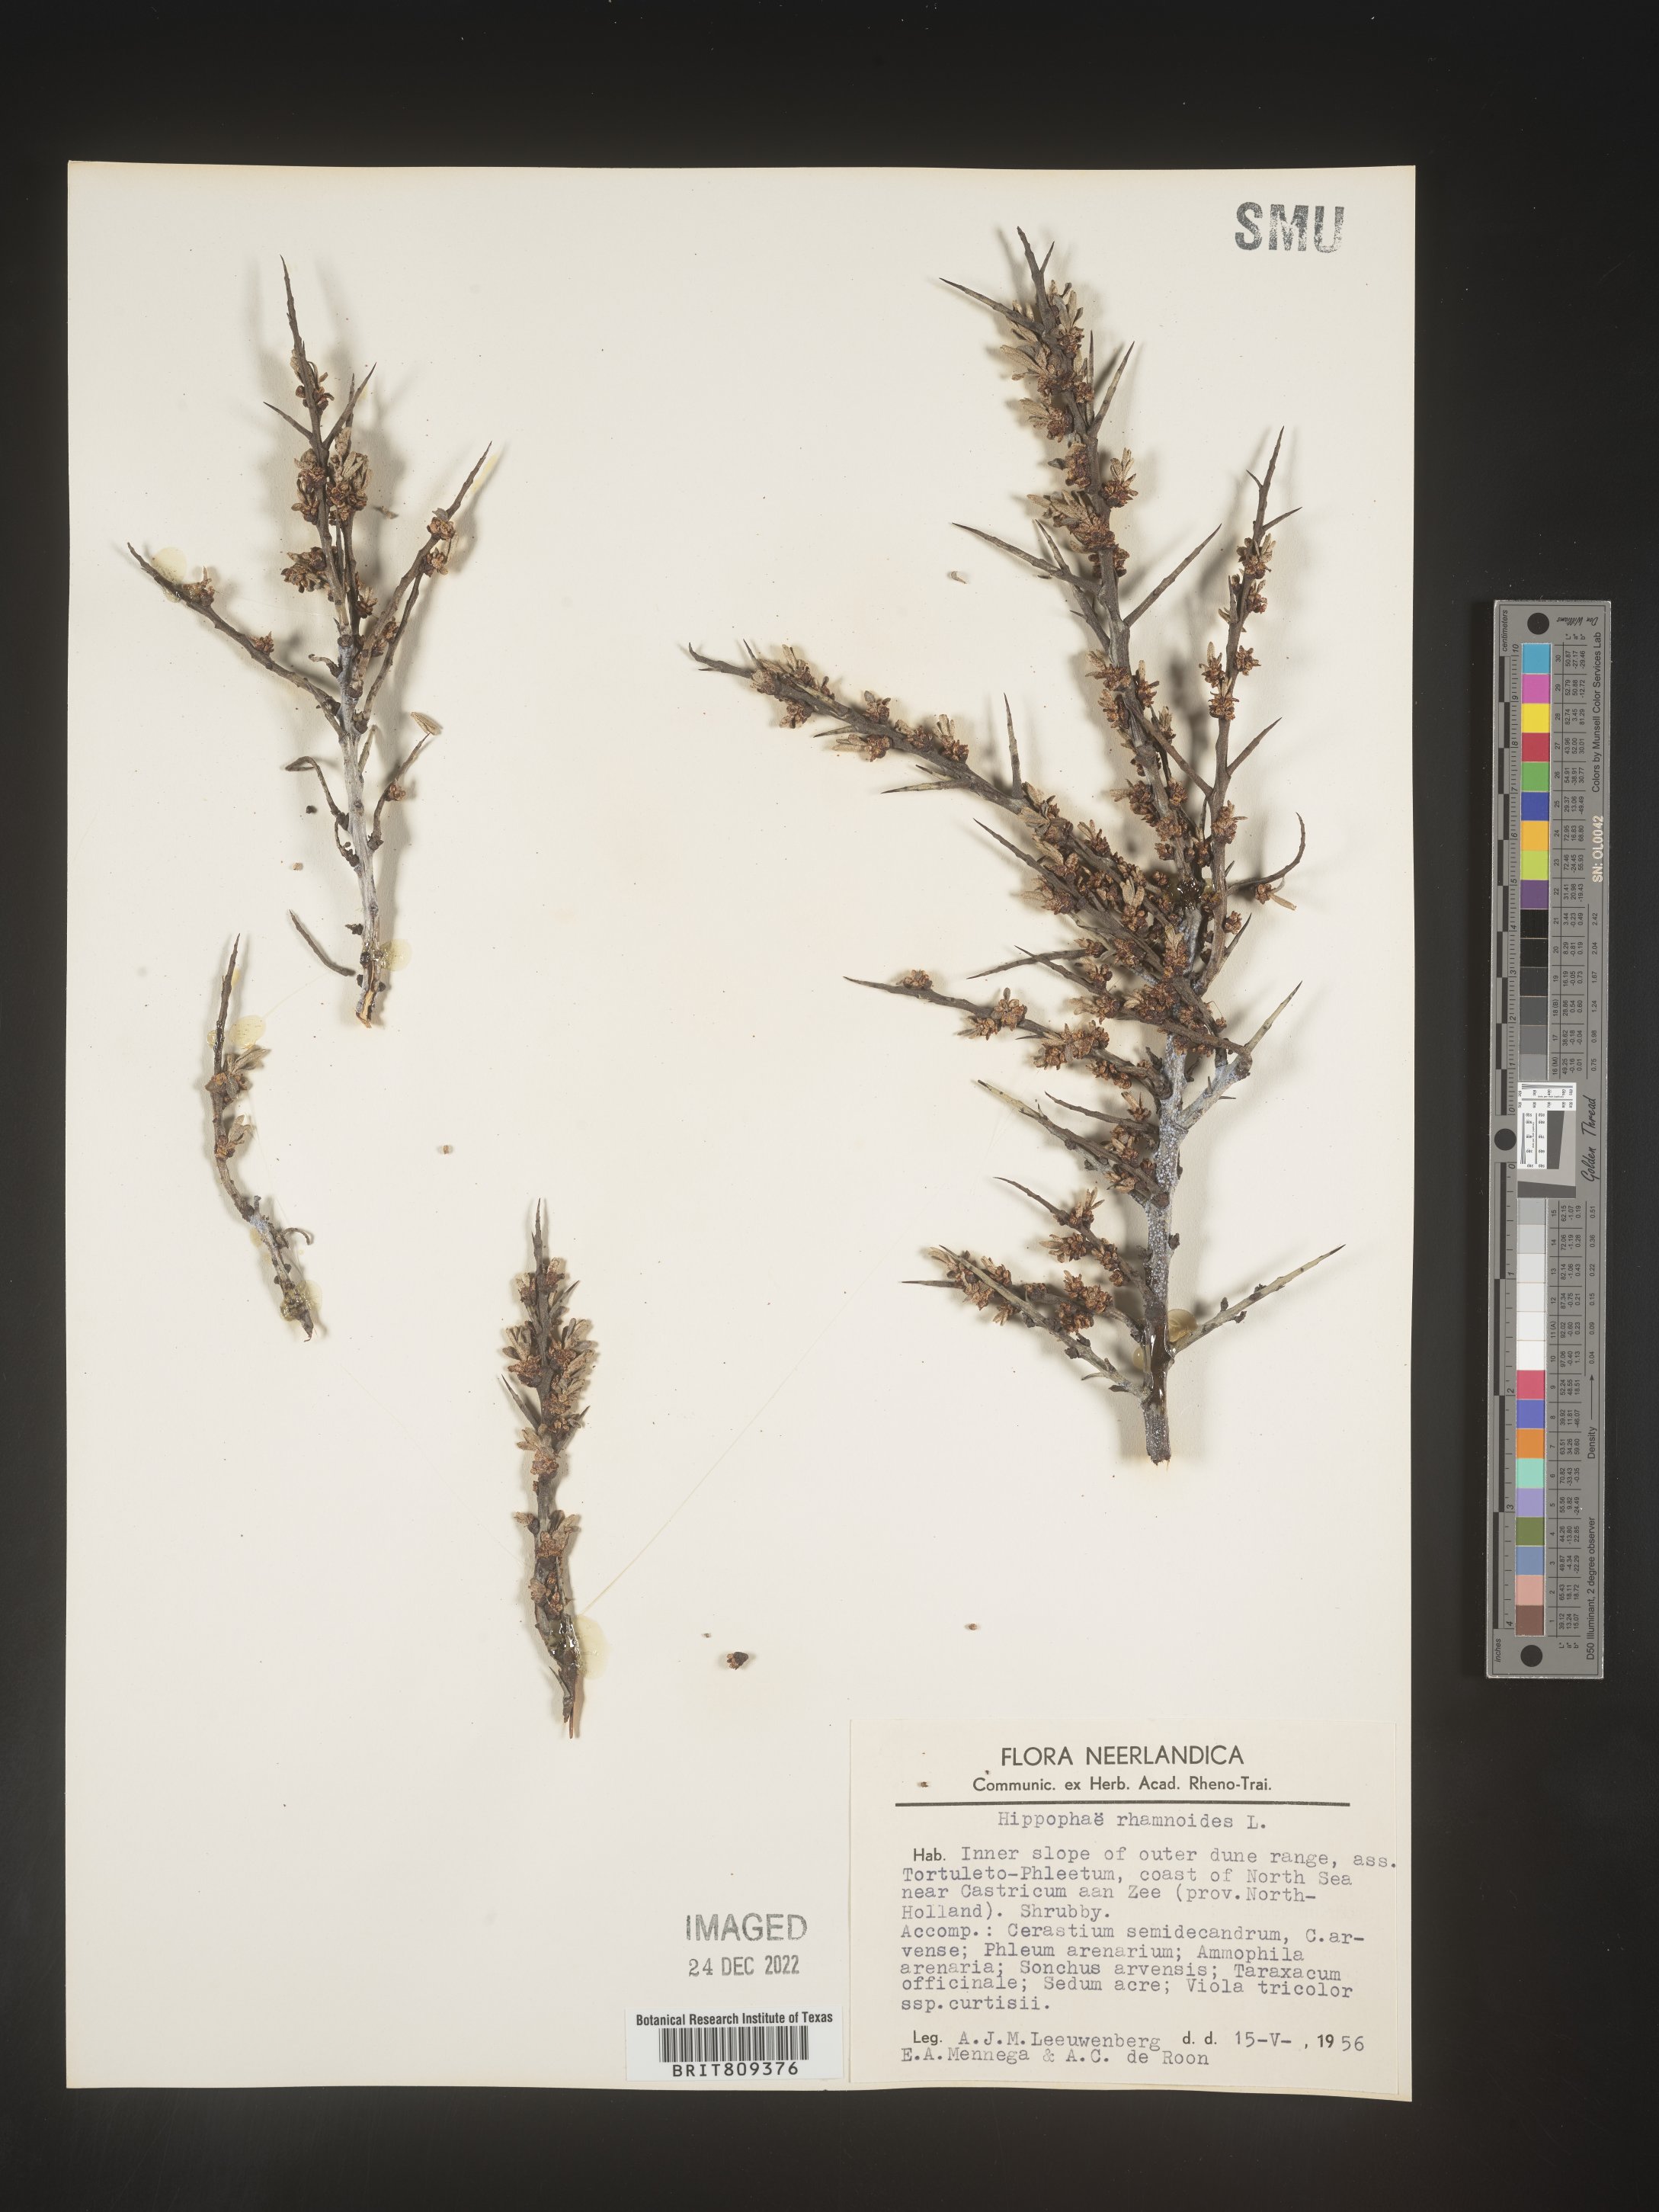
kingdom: Plantae
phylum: Tracheophyta
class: Magnoliopsida
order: Rosales
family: Elaeagnaceae
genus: Hippophae
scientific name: Hippophae
